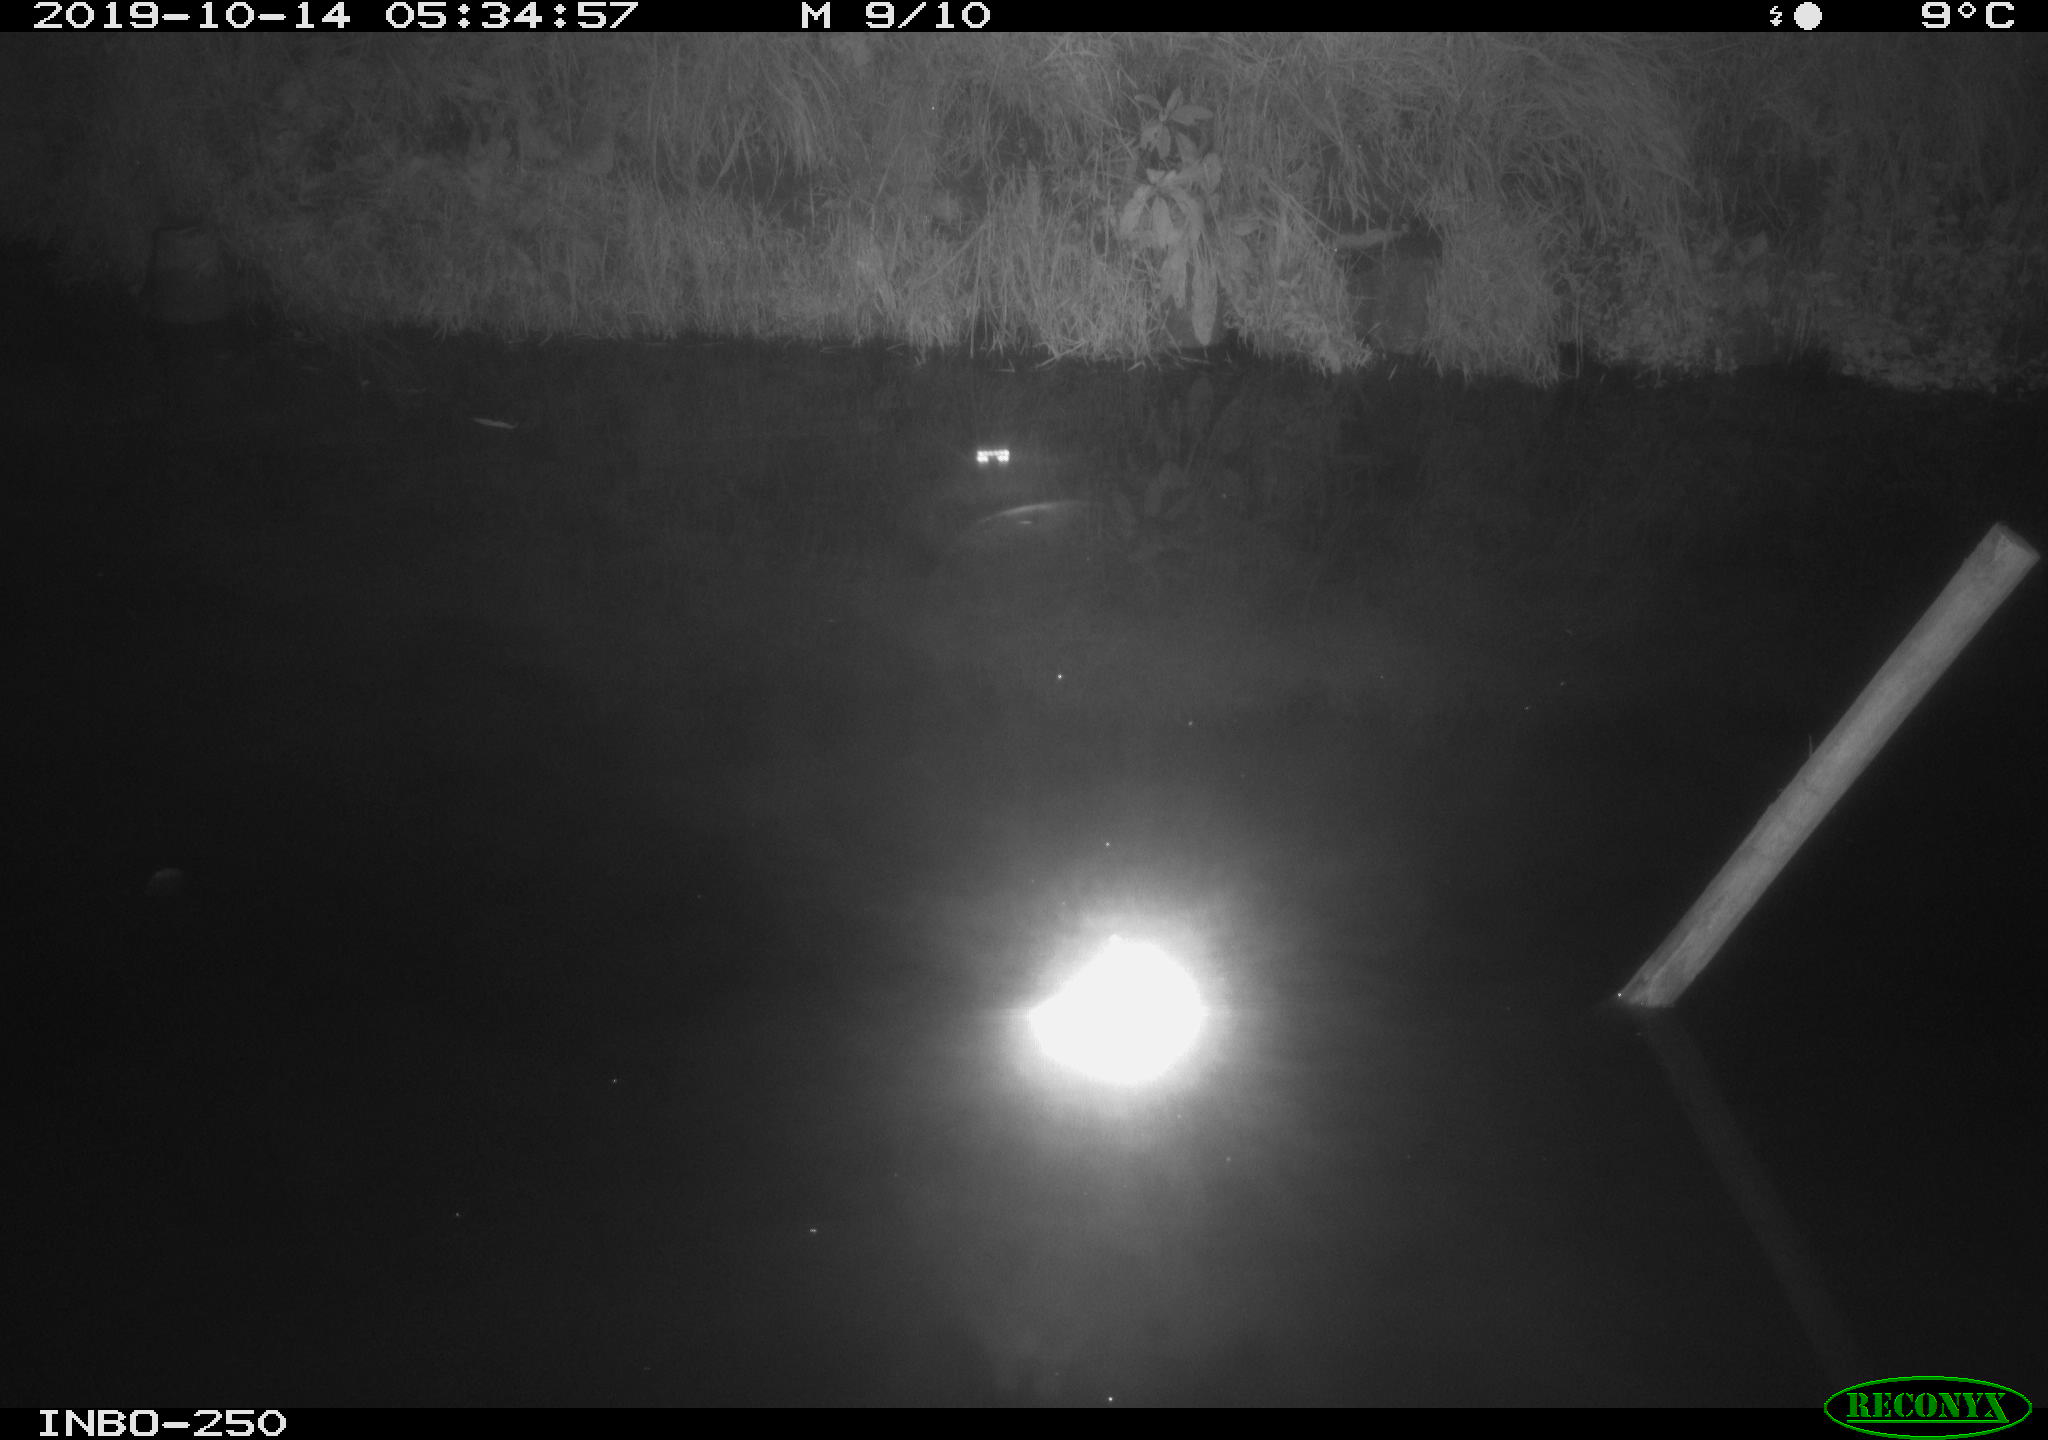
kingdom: Animalia
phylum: Chordata
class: Aves
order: Anseriformes
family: Anatidae
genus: Anas
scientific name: Anas platyrhynchos
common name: Mallard
